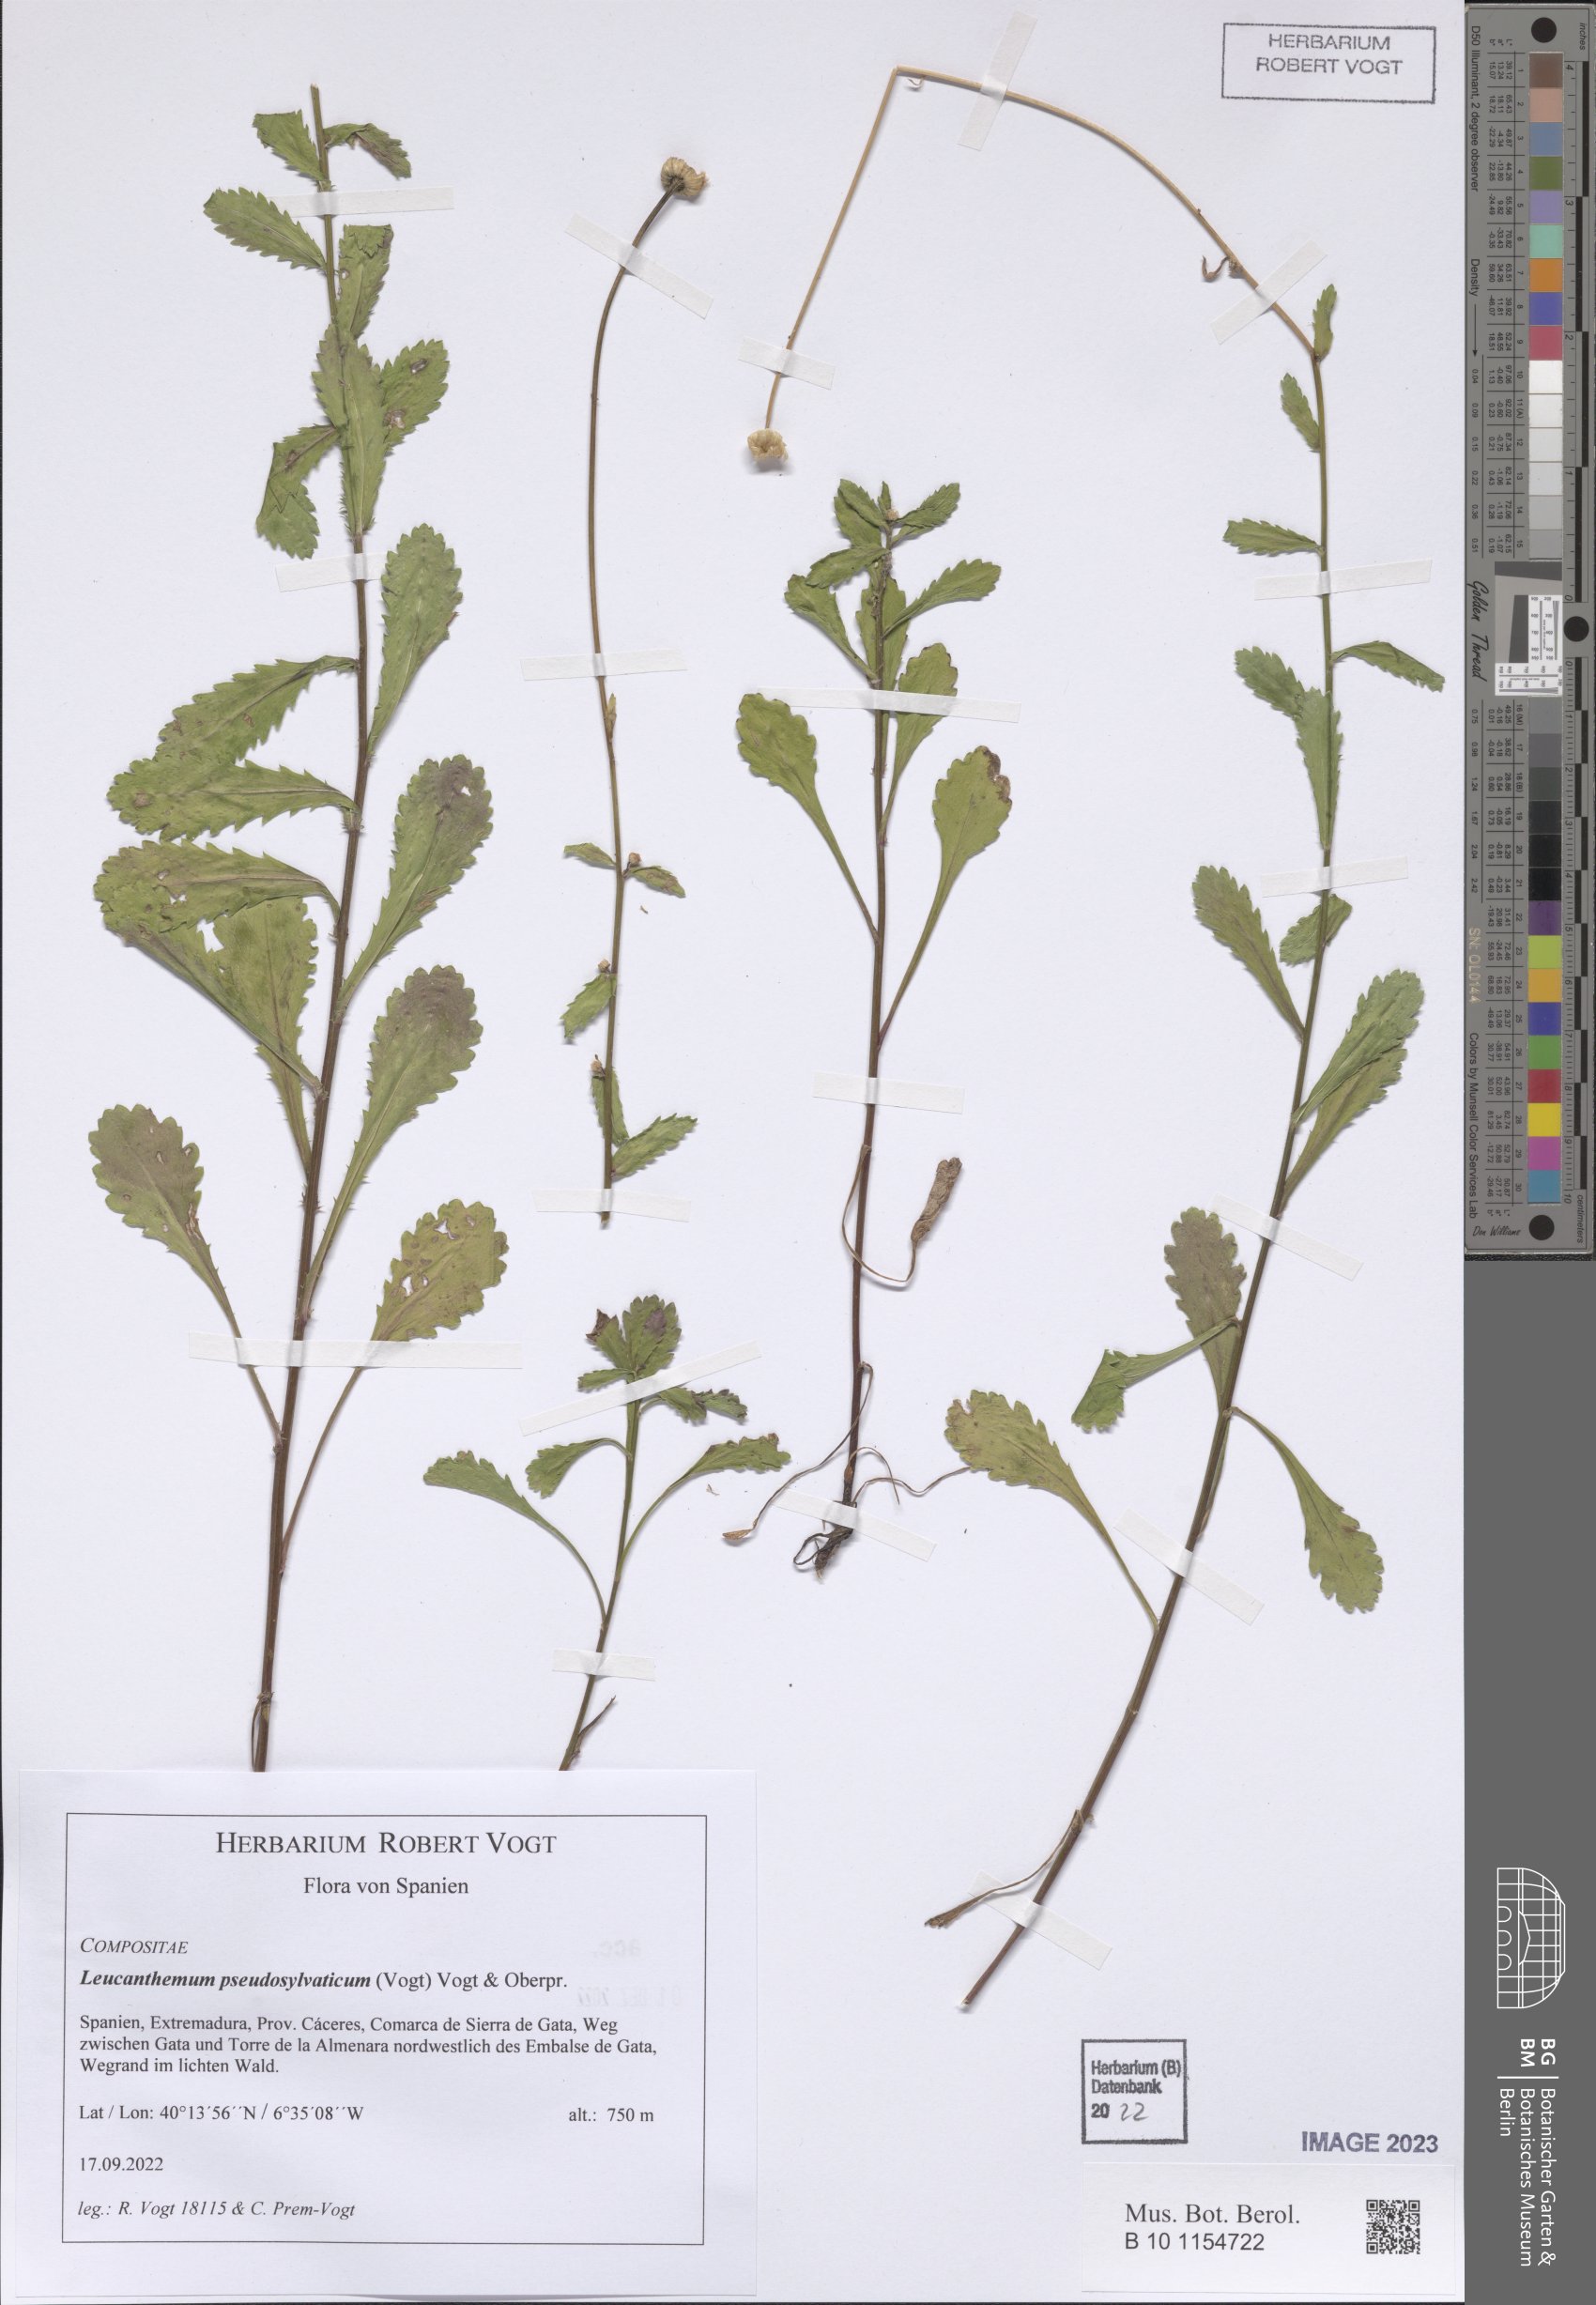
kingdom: Plantae
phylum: Tracheophyta
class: Magnoliopsida
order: Asterales
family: Asteraceae
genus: Leucanthemum
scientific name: Leucanthemum pseudosylvaticum
